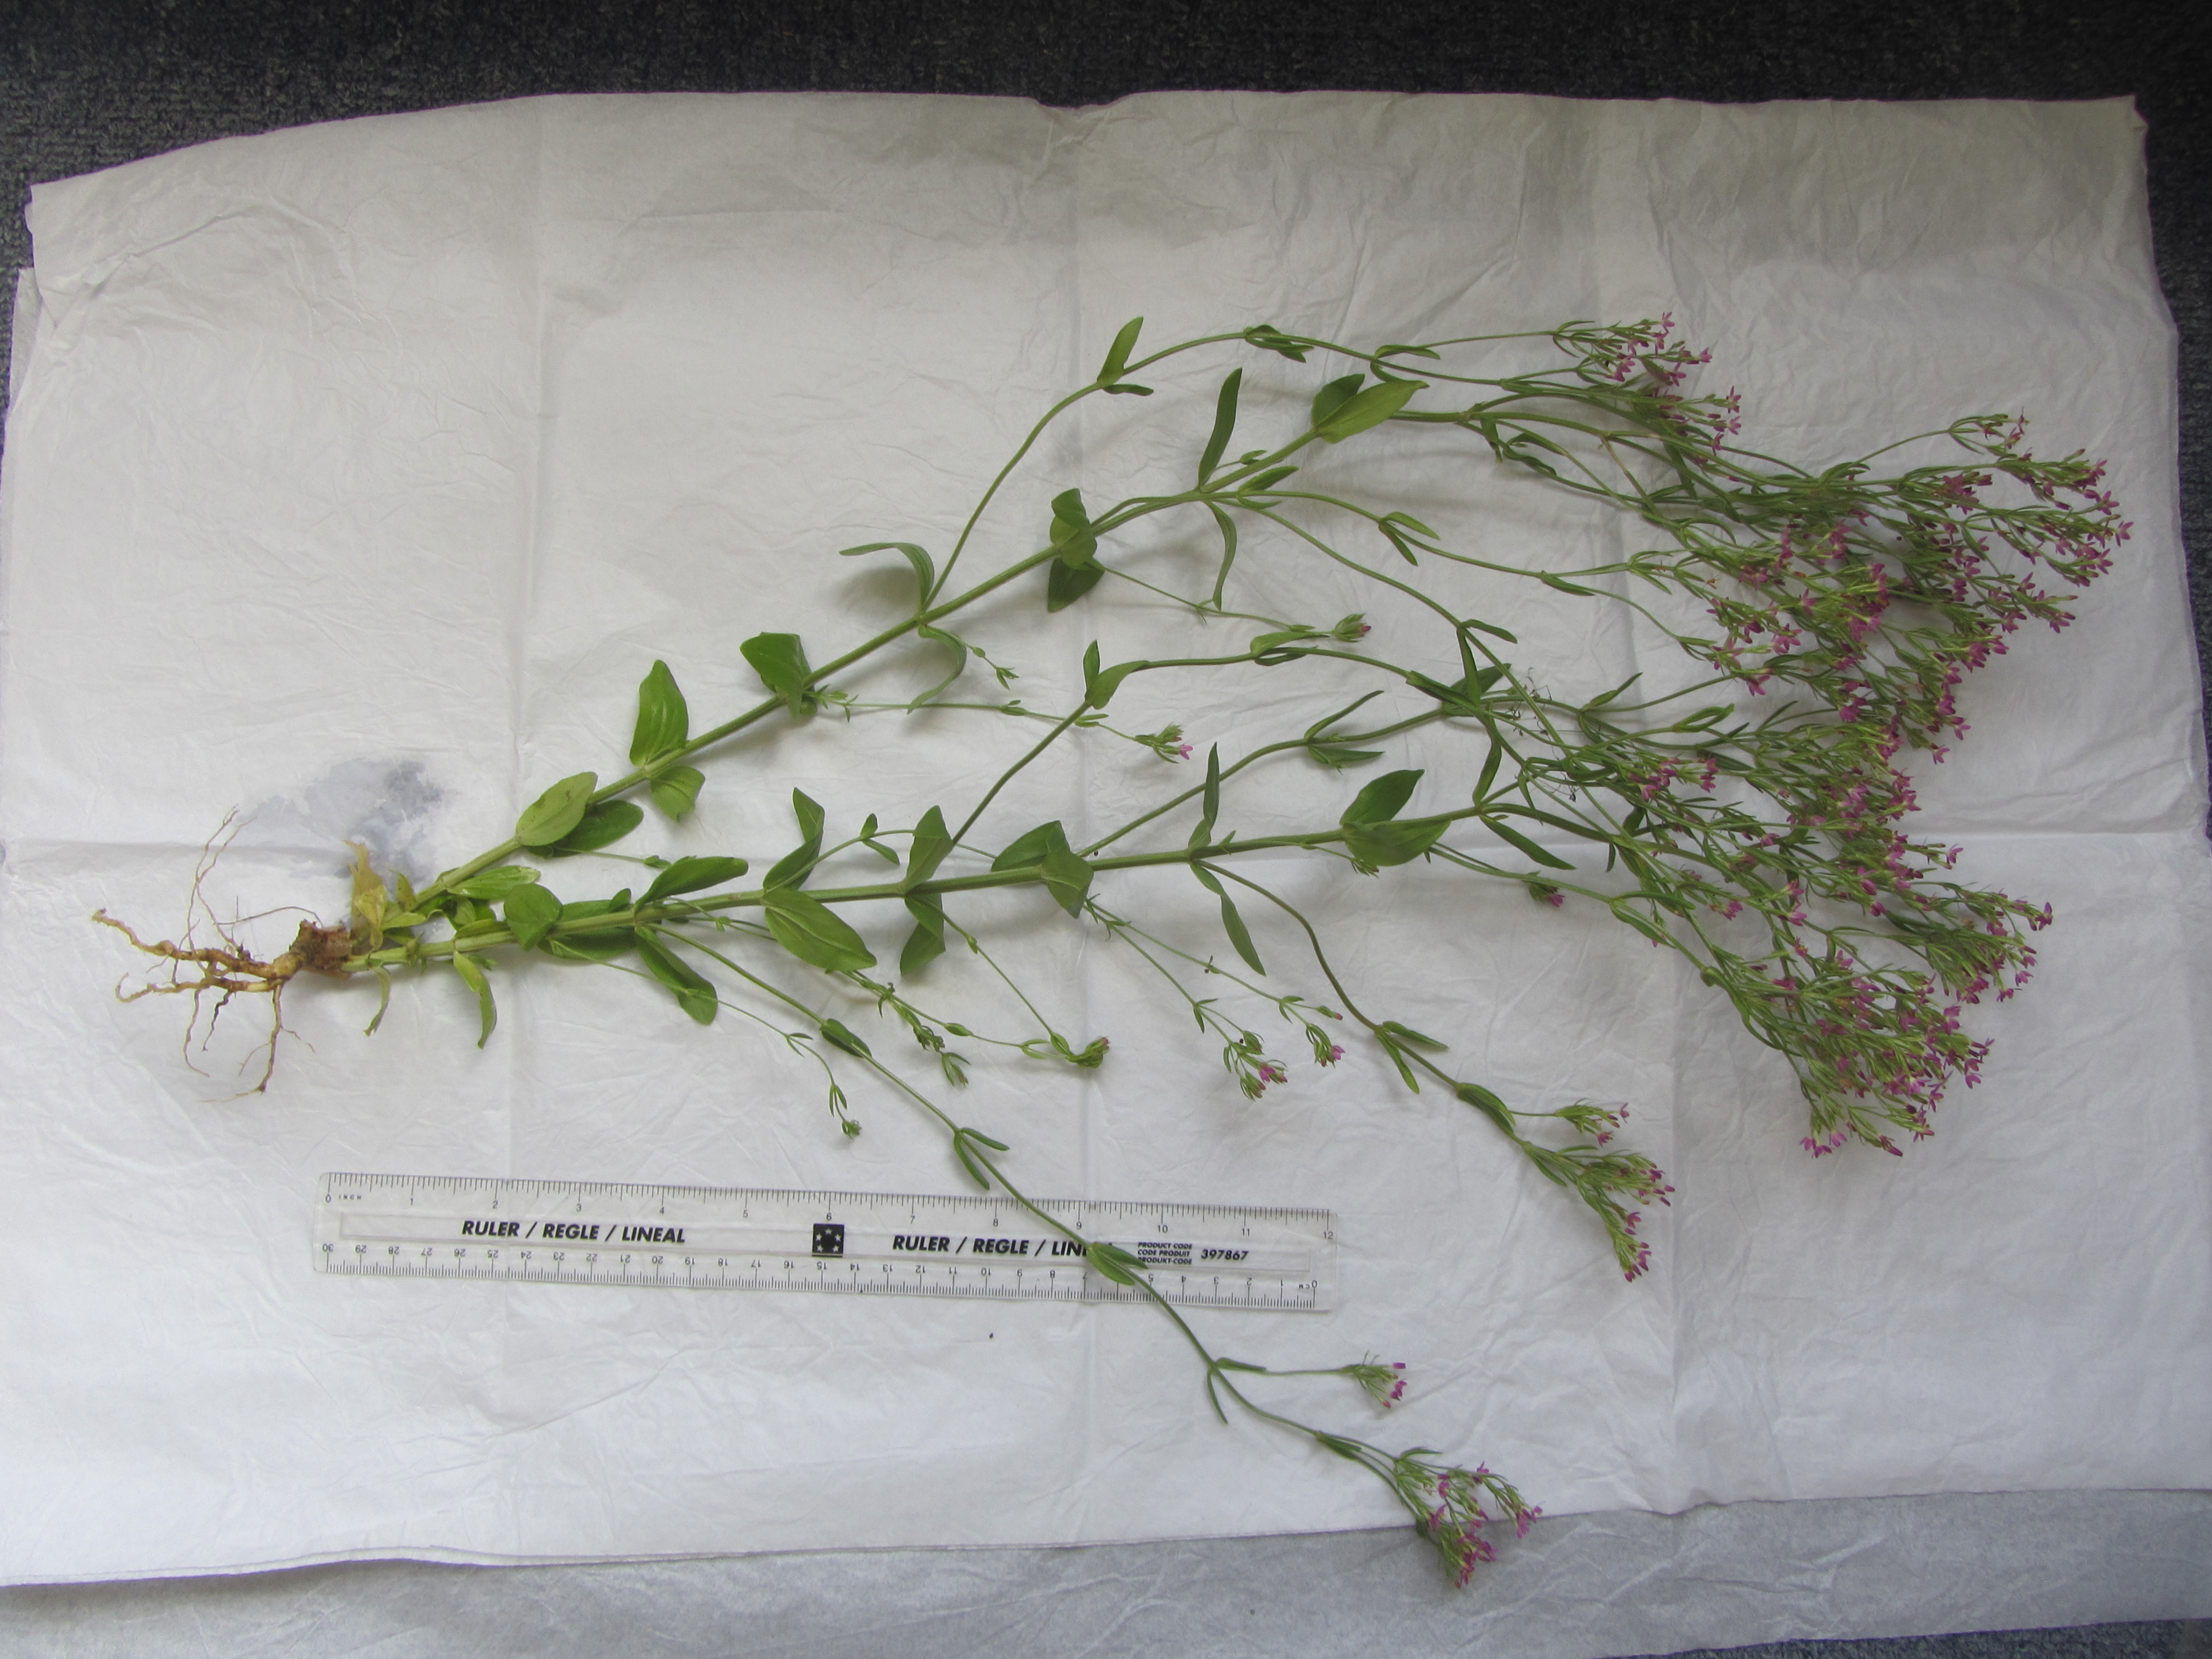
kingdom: Plantae
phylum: Tracheophyta
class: Magnoliopsida
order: Gentianales
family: Gentianaceae
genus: Centaurium
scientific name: Centaurium tenuiflorum
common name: Slender centaury
